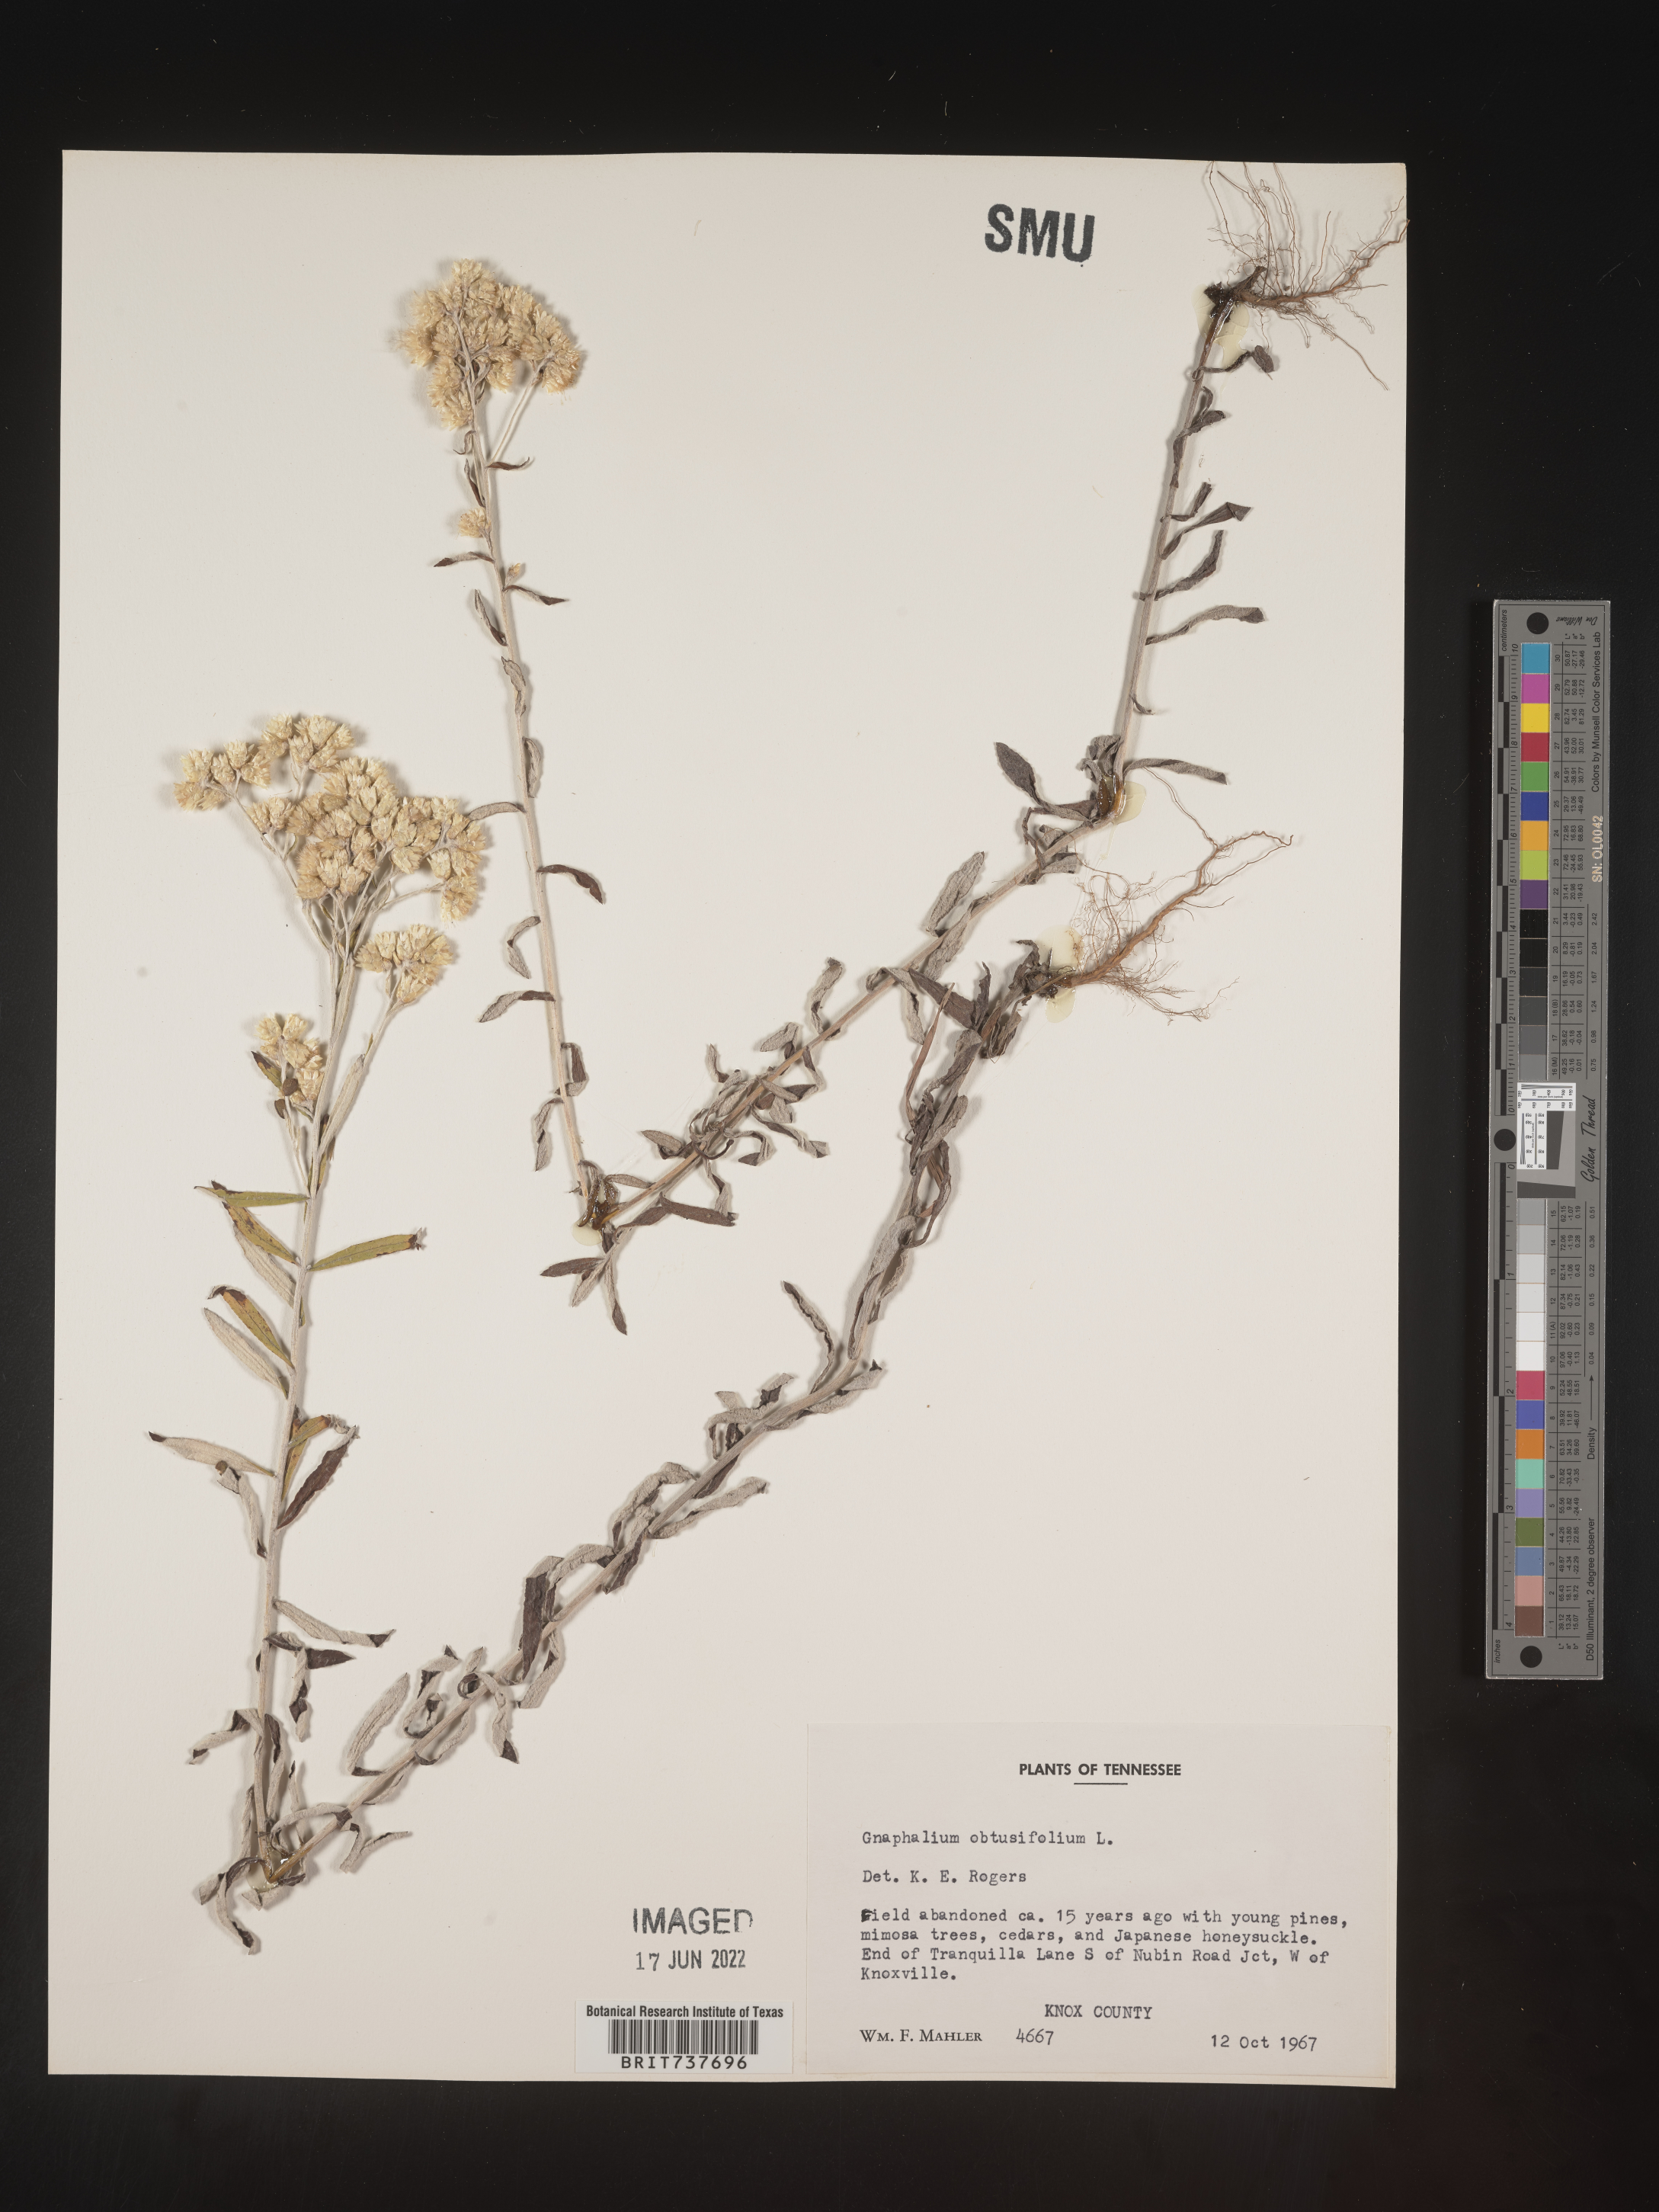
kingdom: Plantae
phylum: Tracheophyta
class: Magnoliopsida
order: Asterales
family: Asteraceae
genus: Pseudognaphalium
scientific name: Pseudognaphalium obtusifolium
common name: Eastern rabbit-tobacco
